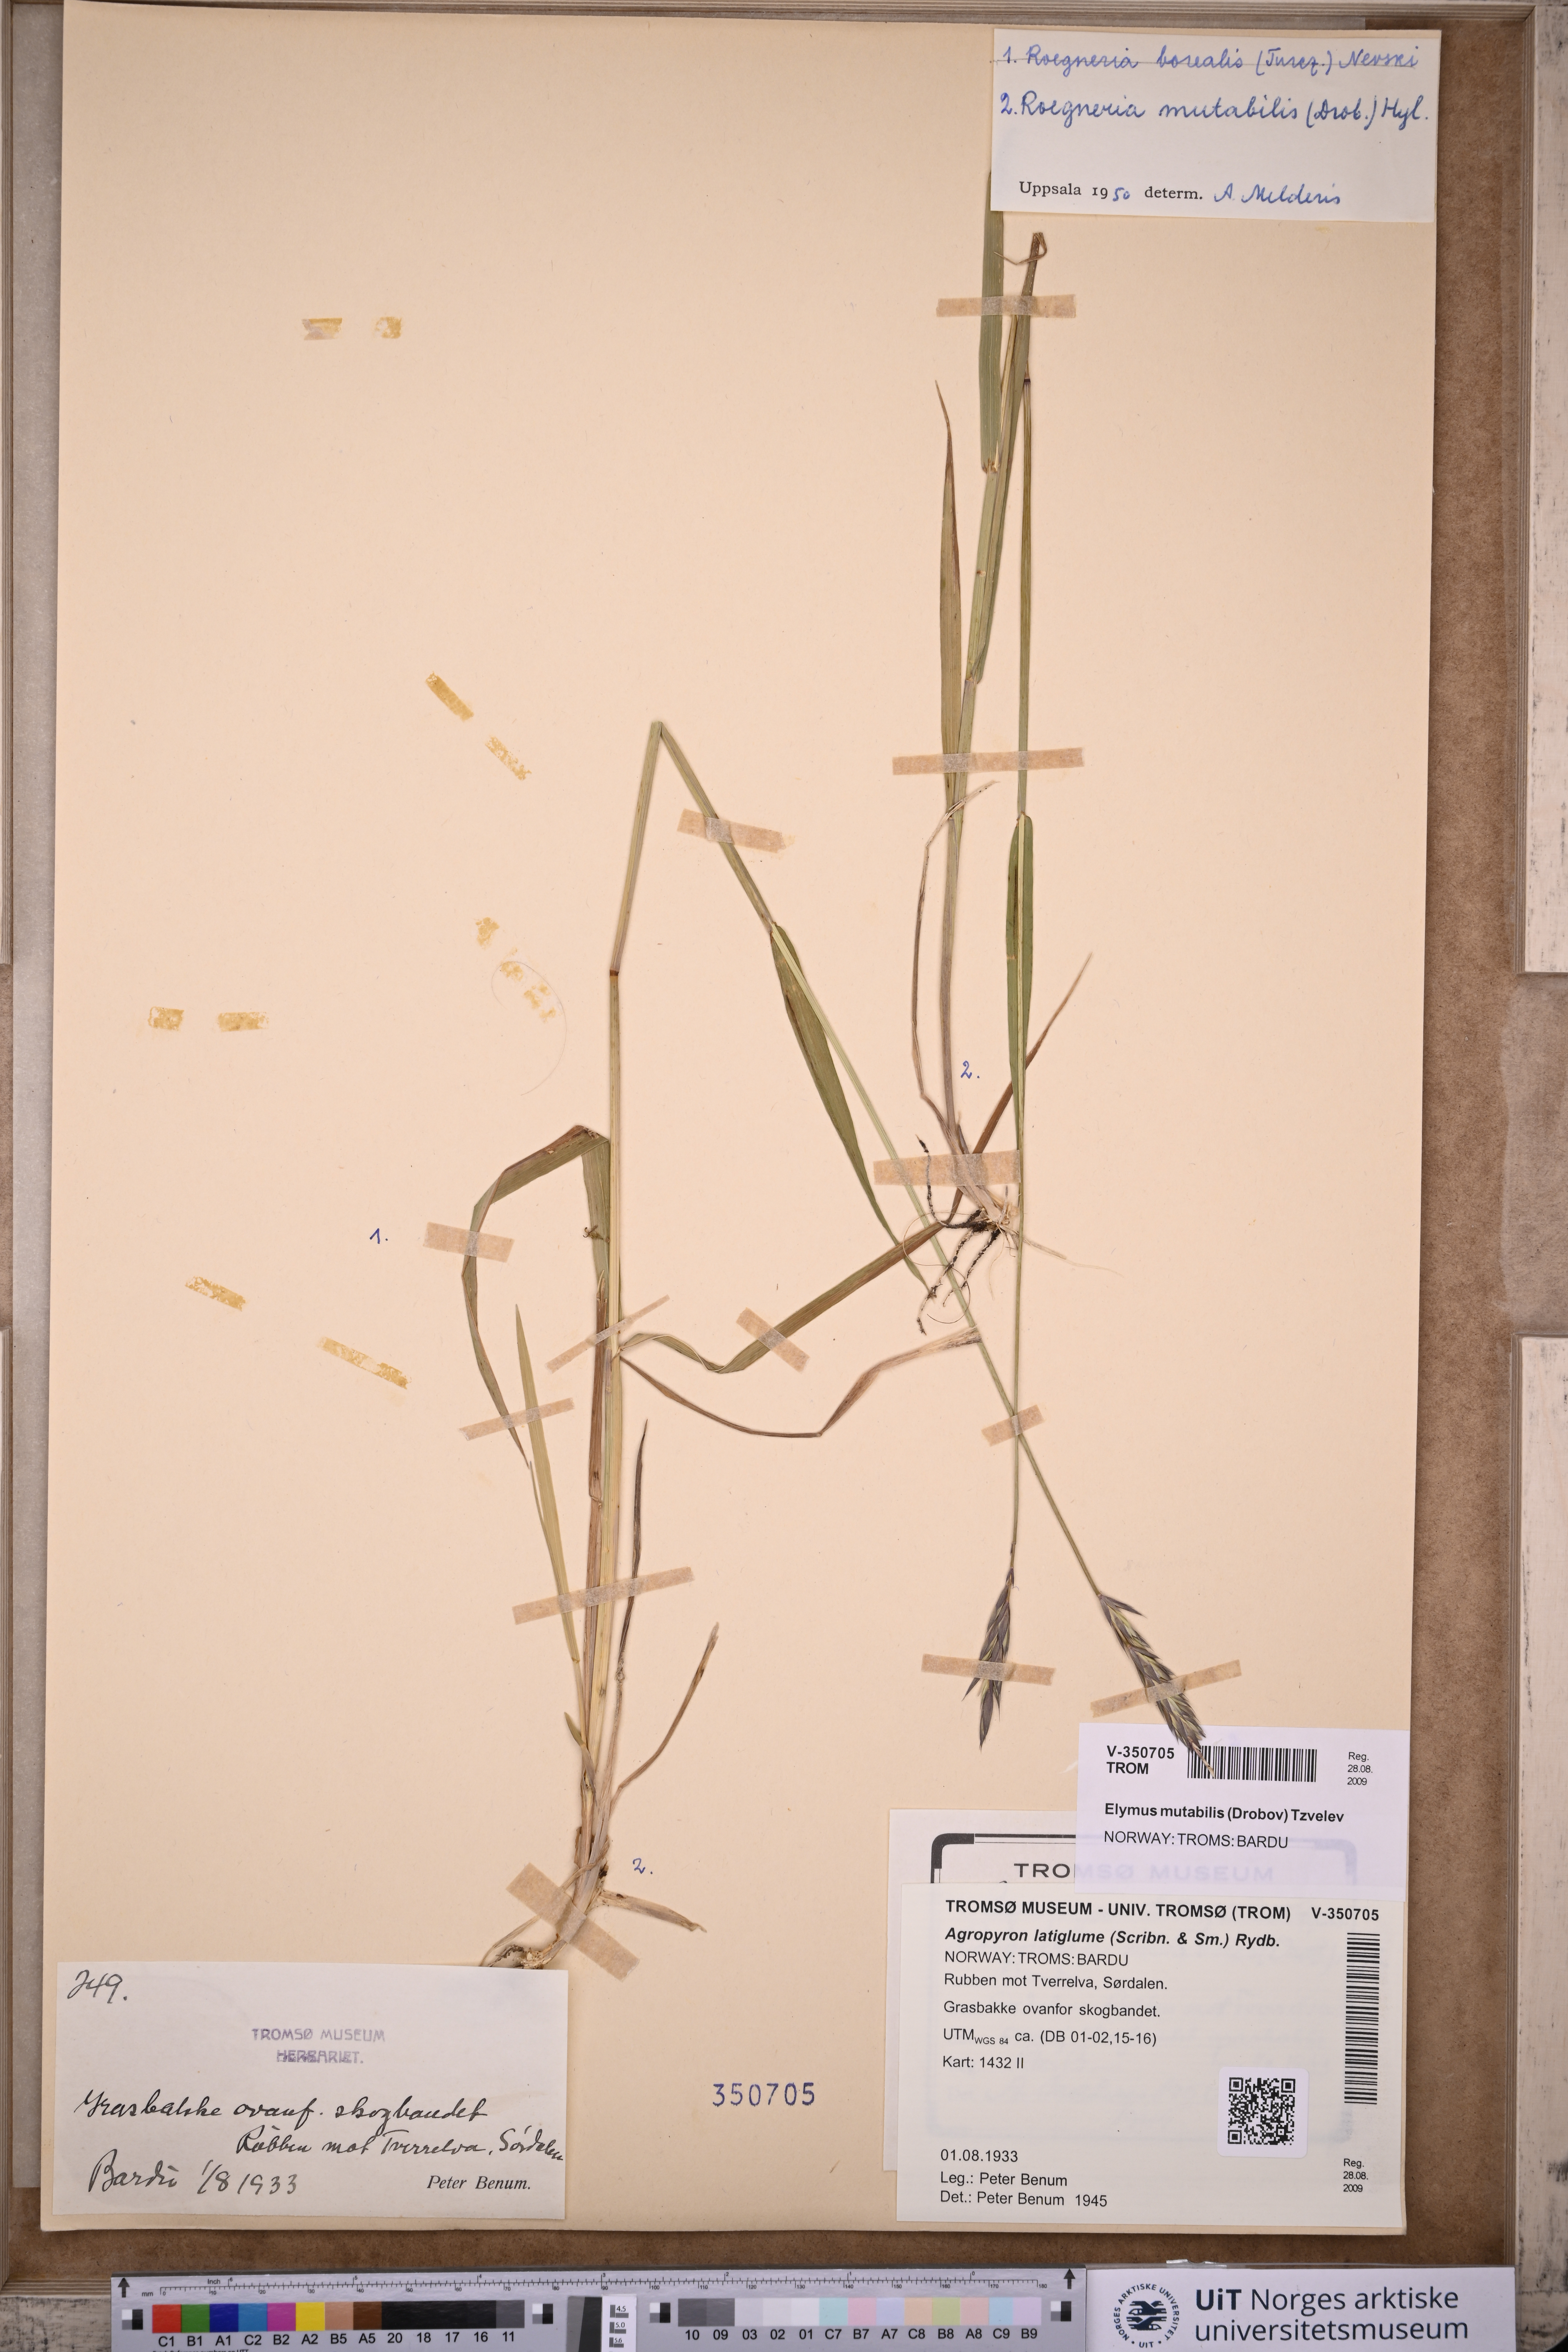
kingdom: Plantae
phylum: Tracheophyta
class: Liliopsida
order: Poales
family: Poaceae
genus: Elymus
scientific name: Elymus mutabilis
